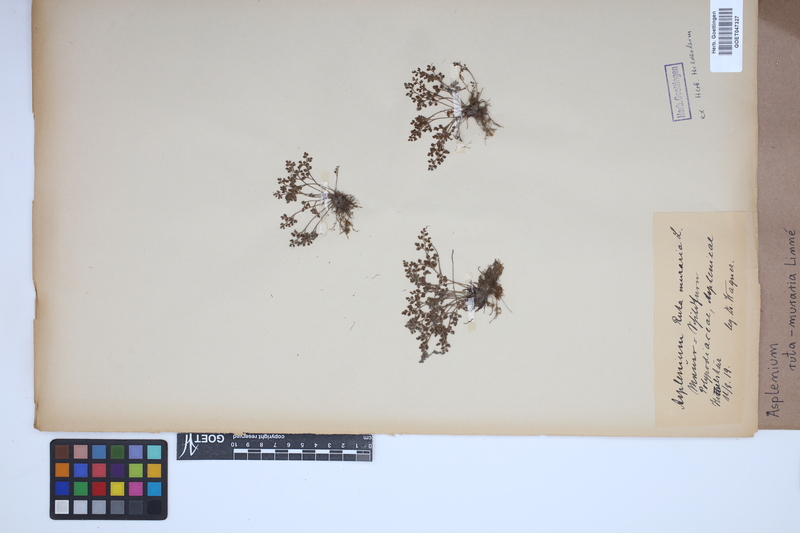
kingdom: Plantae
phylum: Tracheophyta
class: Polypodiopsida
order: Polypodiales
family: Aspleniaceae
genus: Asplenium
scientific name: Asplenium ruta-muraria
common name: Wall-rue
